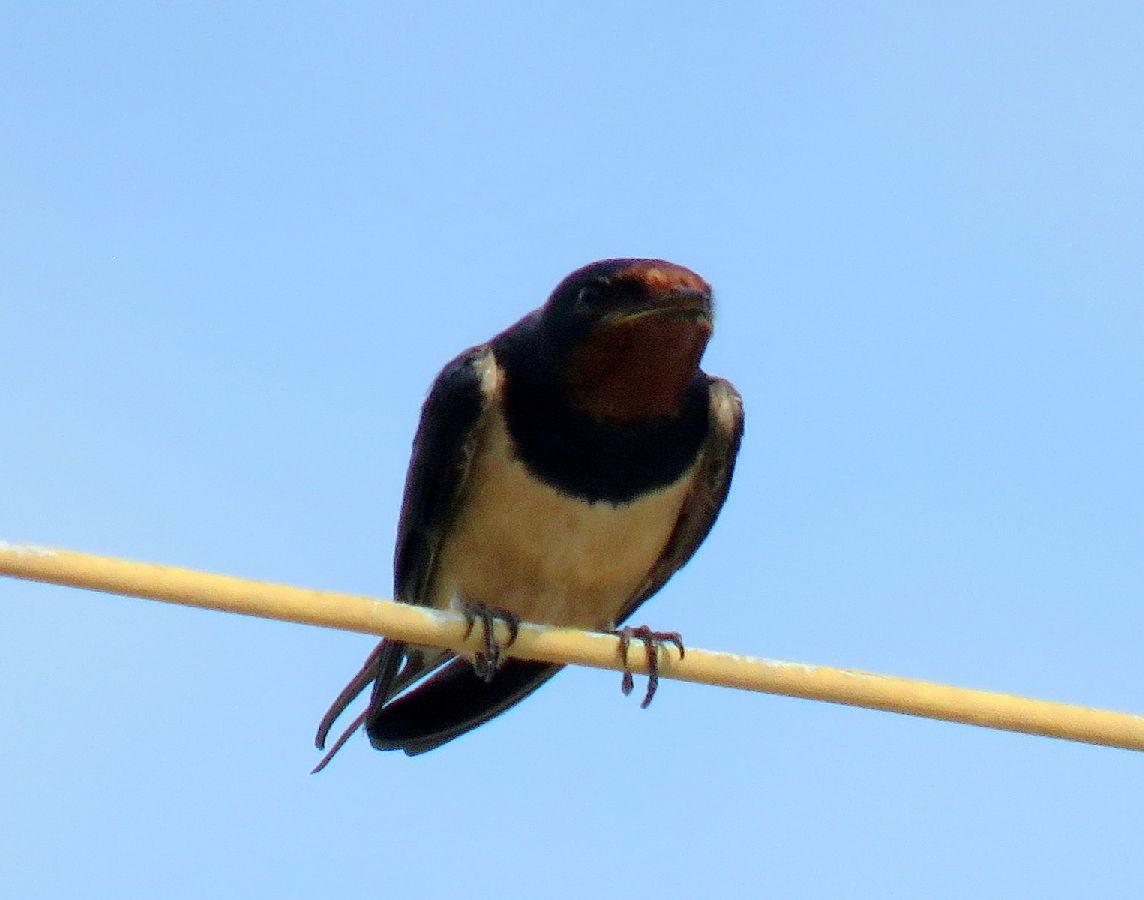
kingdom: Animalia
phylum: Chordata
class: Aves
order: Passeriformes
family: Hirundinidae
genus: Hirundo
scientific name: Hirundo rustica
